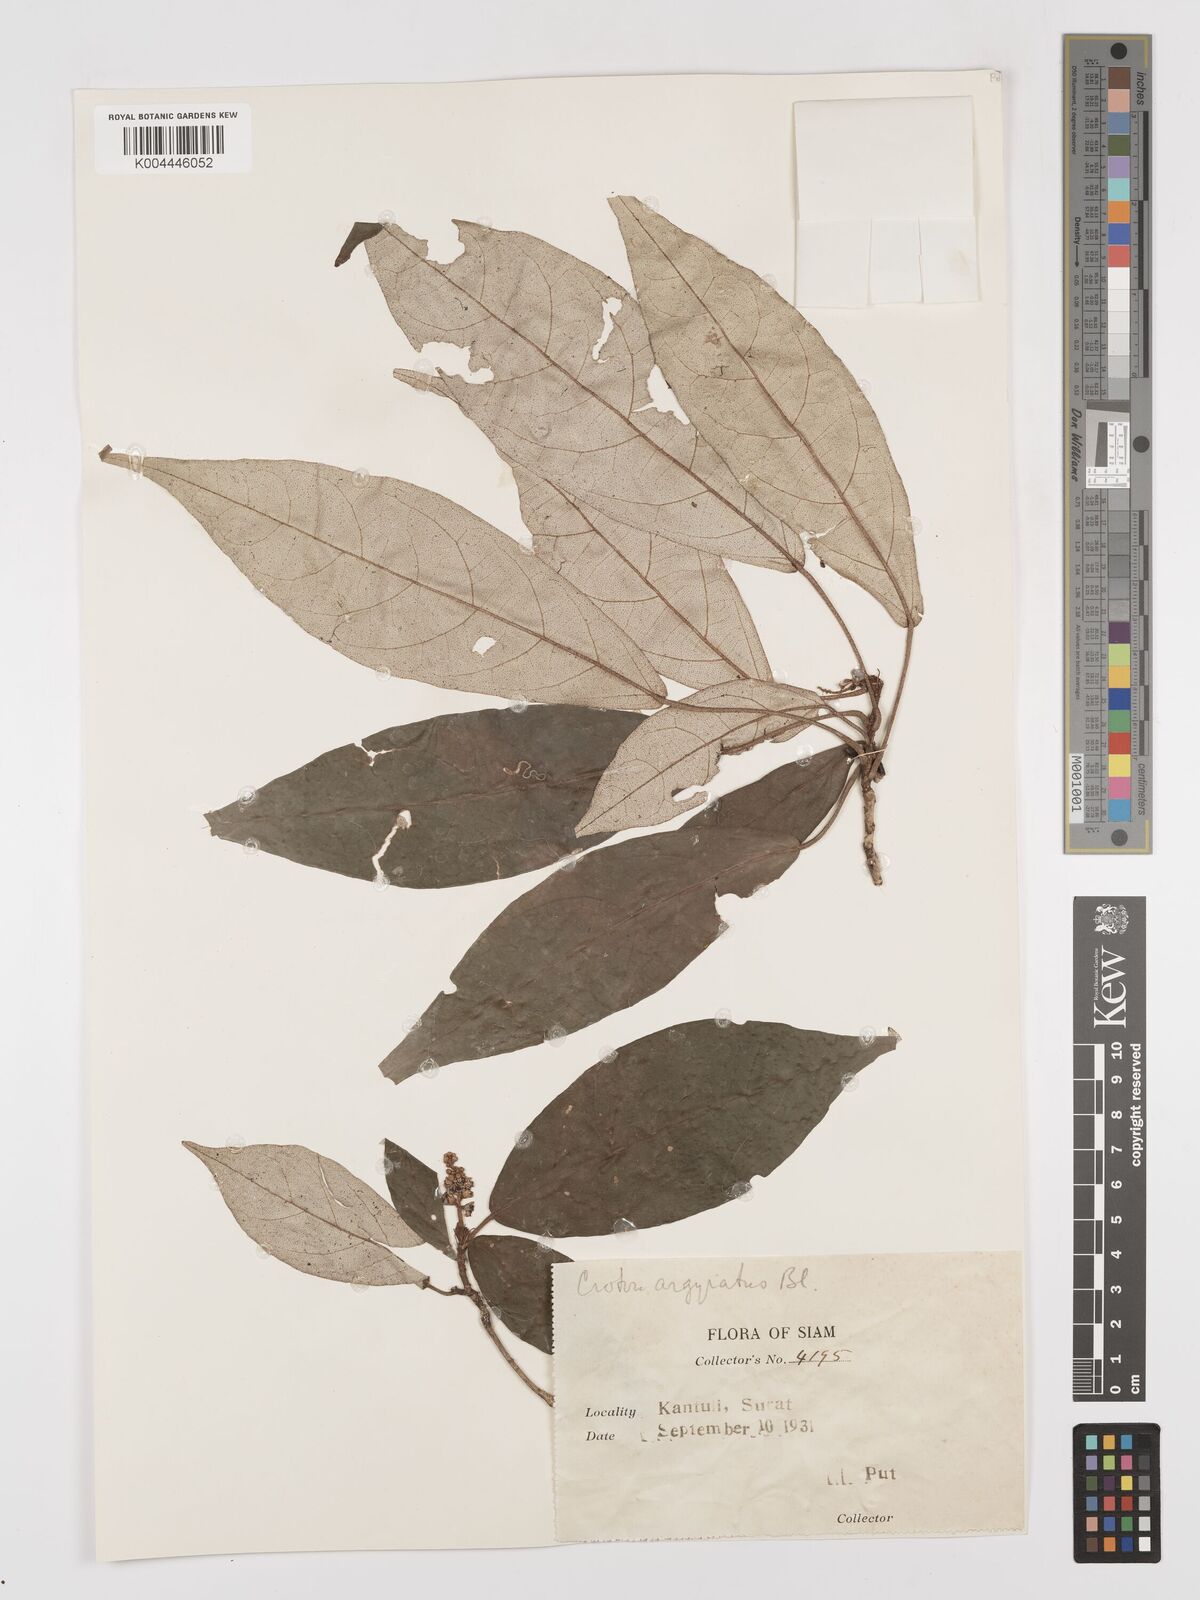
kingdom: Plantae
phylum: Tracheophyta
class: Magnoliopsida
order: Malpighiales
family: Euphorbiaceae
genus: Croton
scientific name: Croton argyratus
